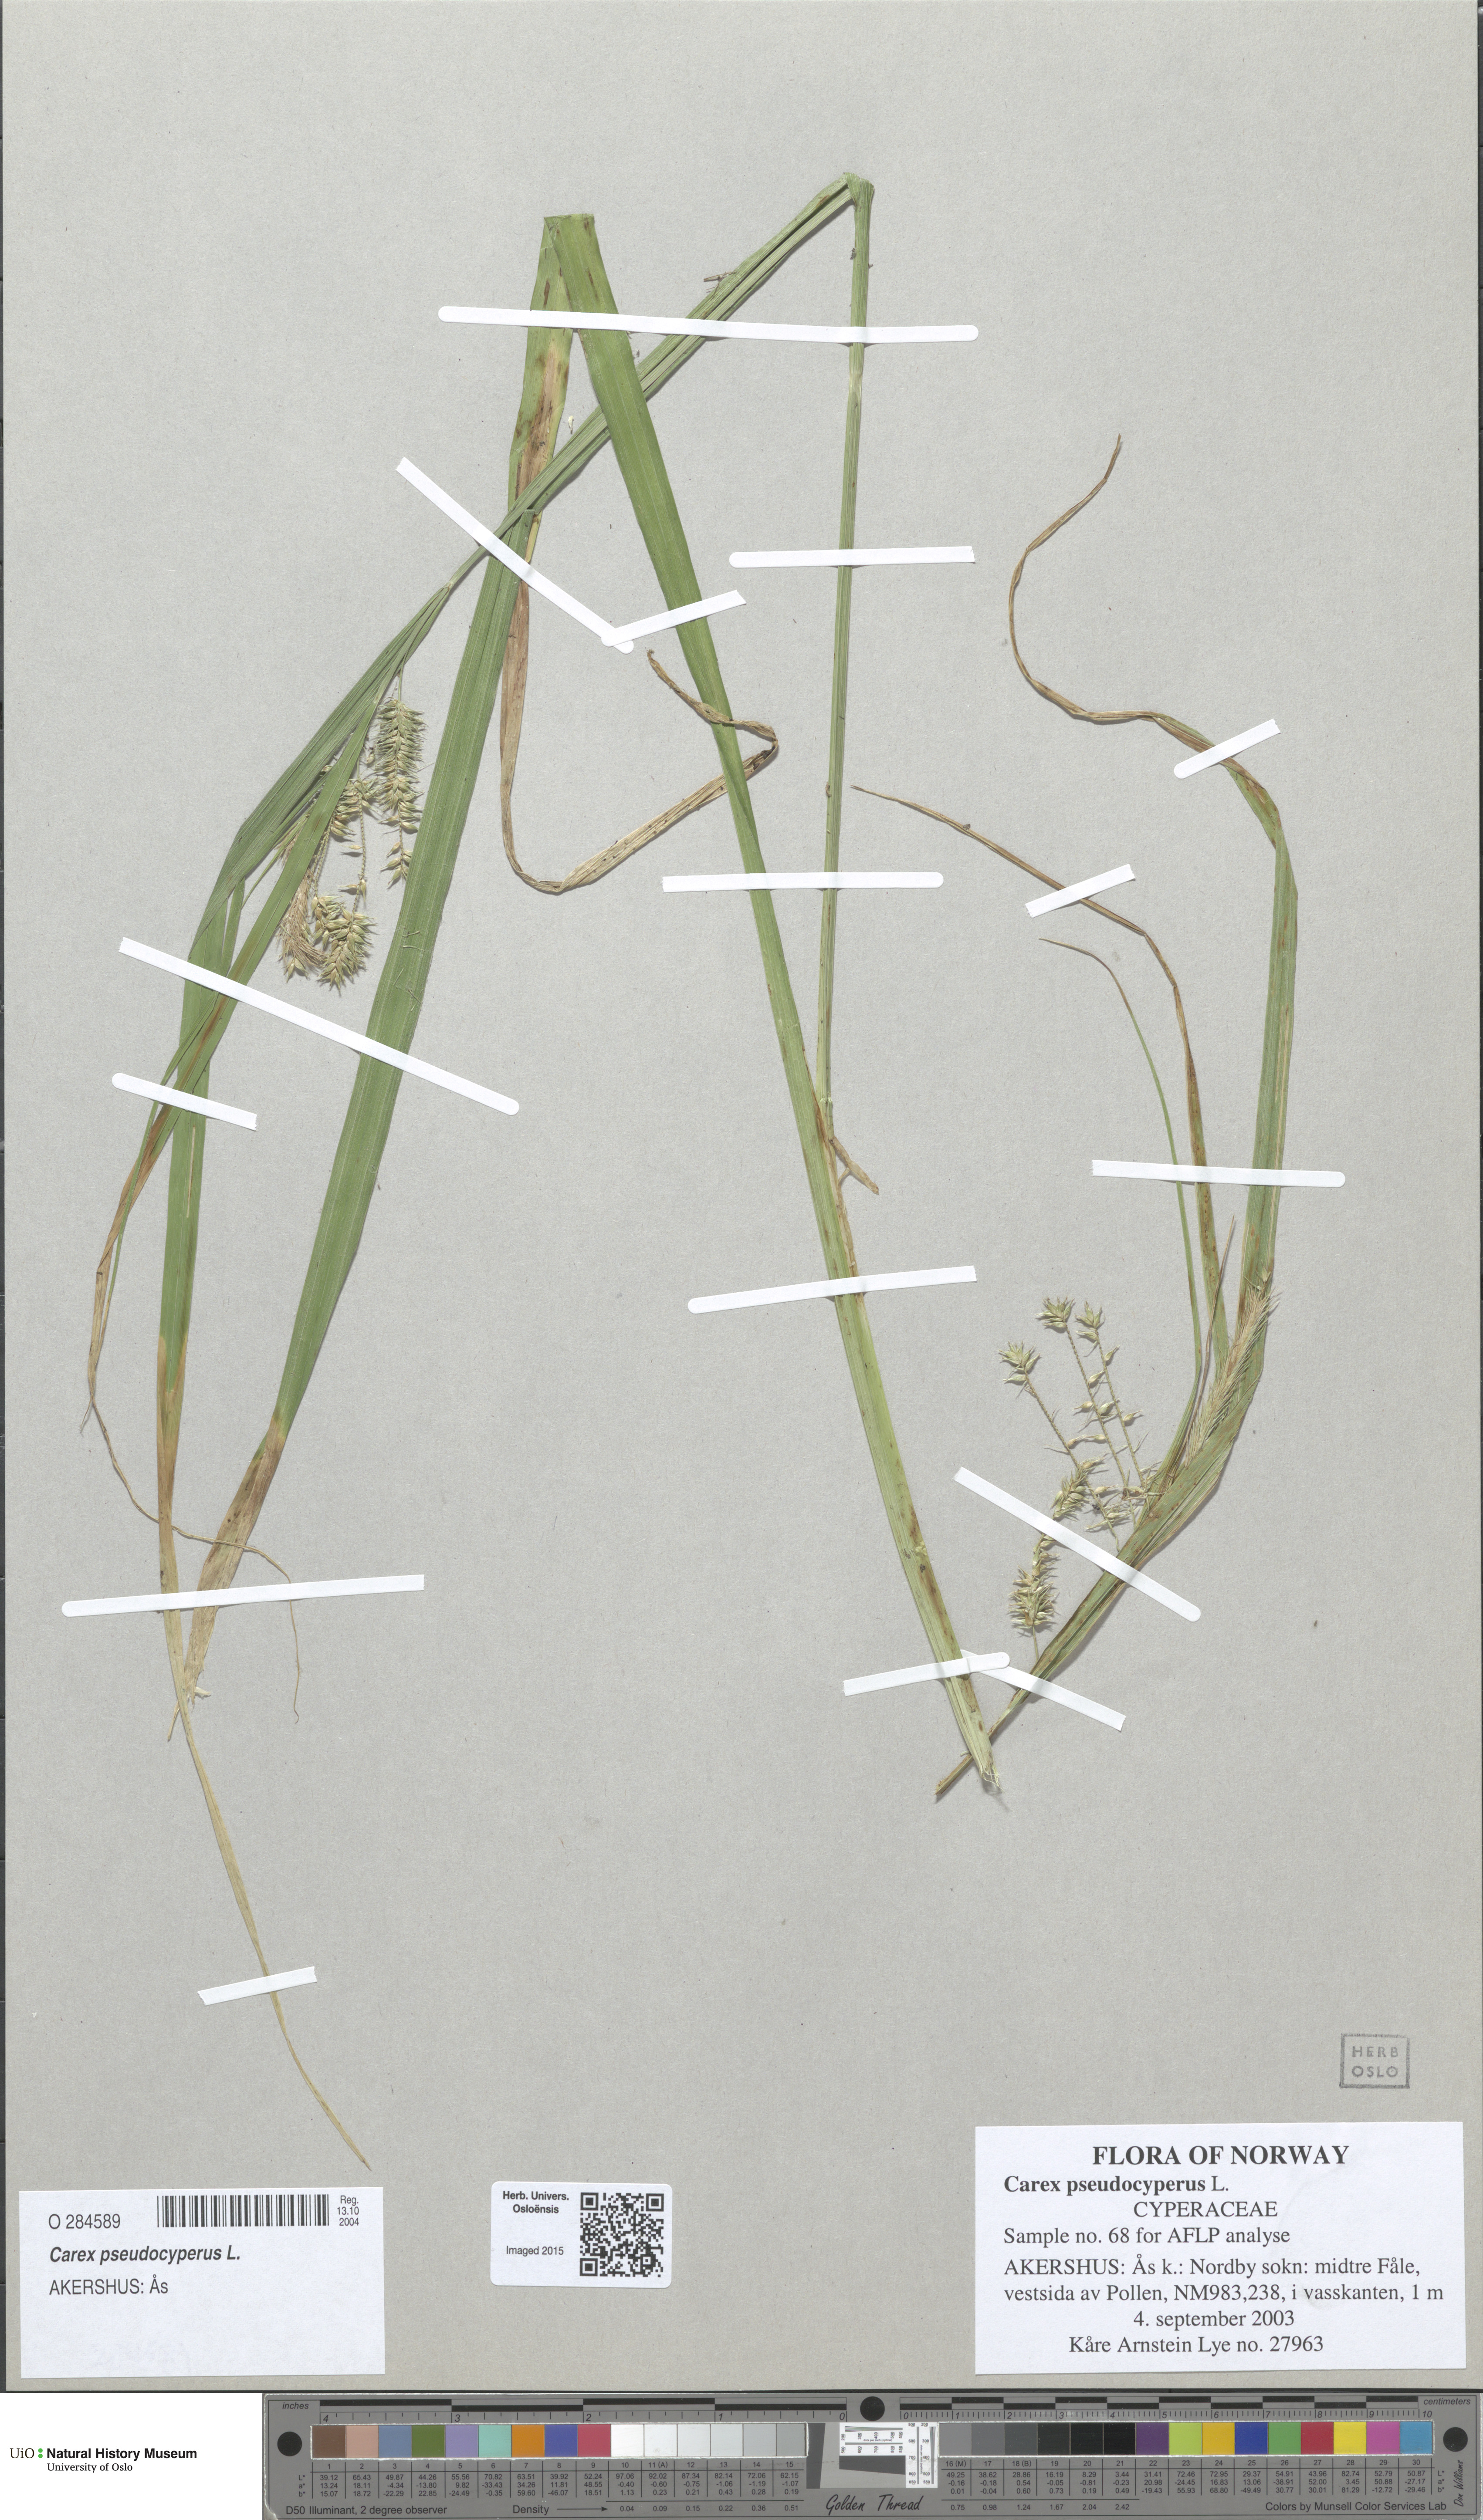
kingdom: Plantae
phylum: Tracheophyta
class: Liliopsida
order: Poales
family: Cyperaceae
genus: Carex
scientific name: Carex pseudocyperus
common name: Cyperus sedge
